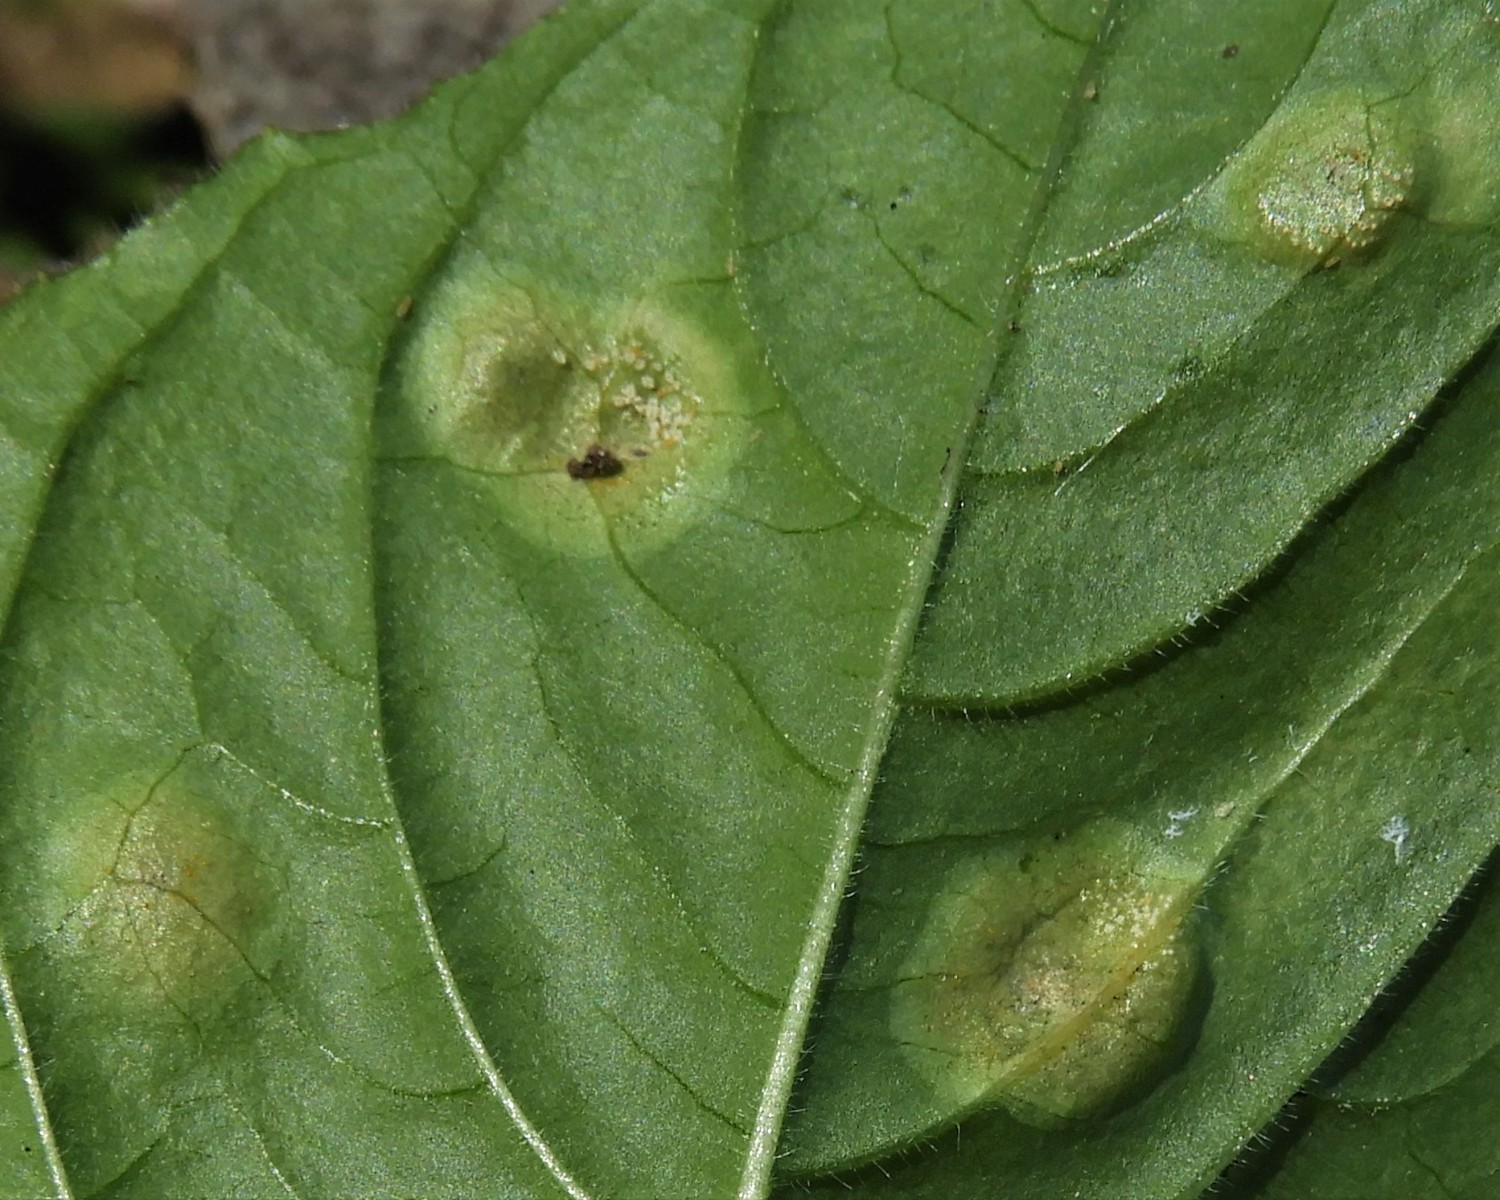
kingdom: Fungi
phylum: Basidiomycota
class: Pucciniomycetes
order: Pucciniales
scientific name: Pucciniales
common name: rustsvampeordenen
